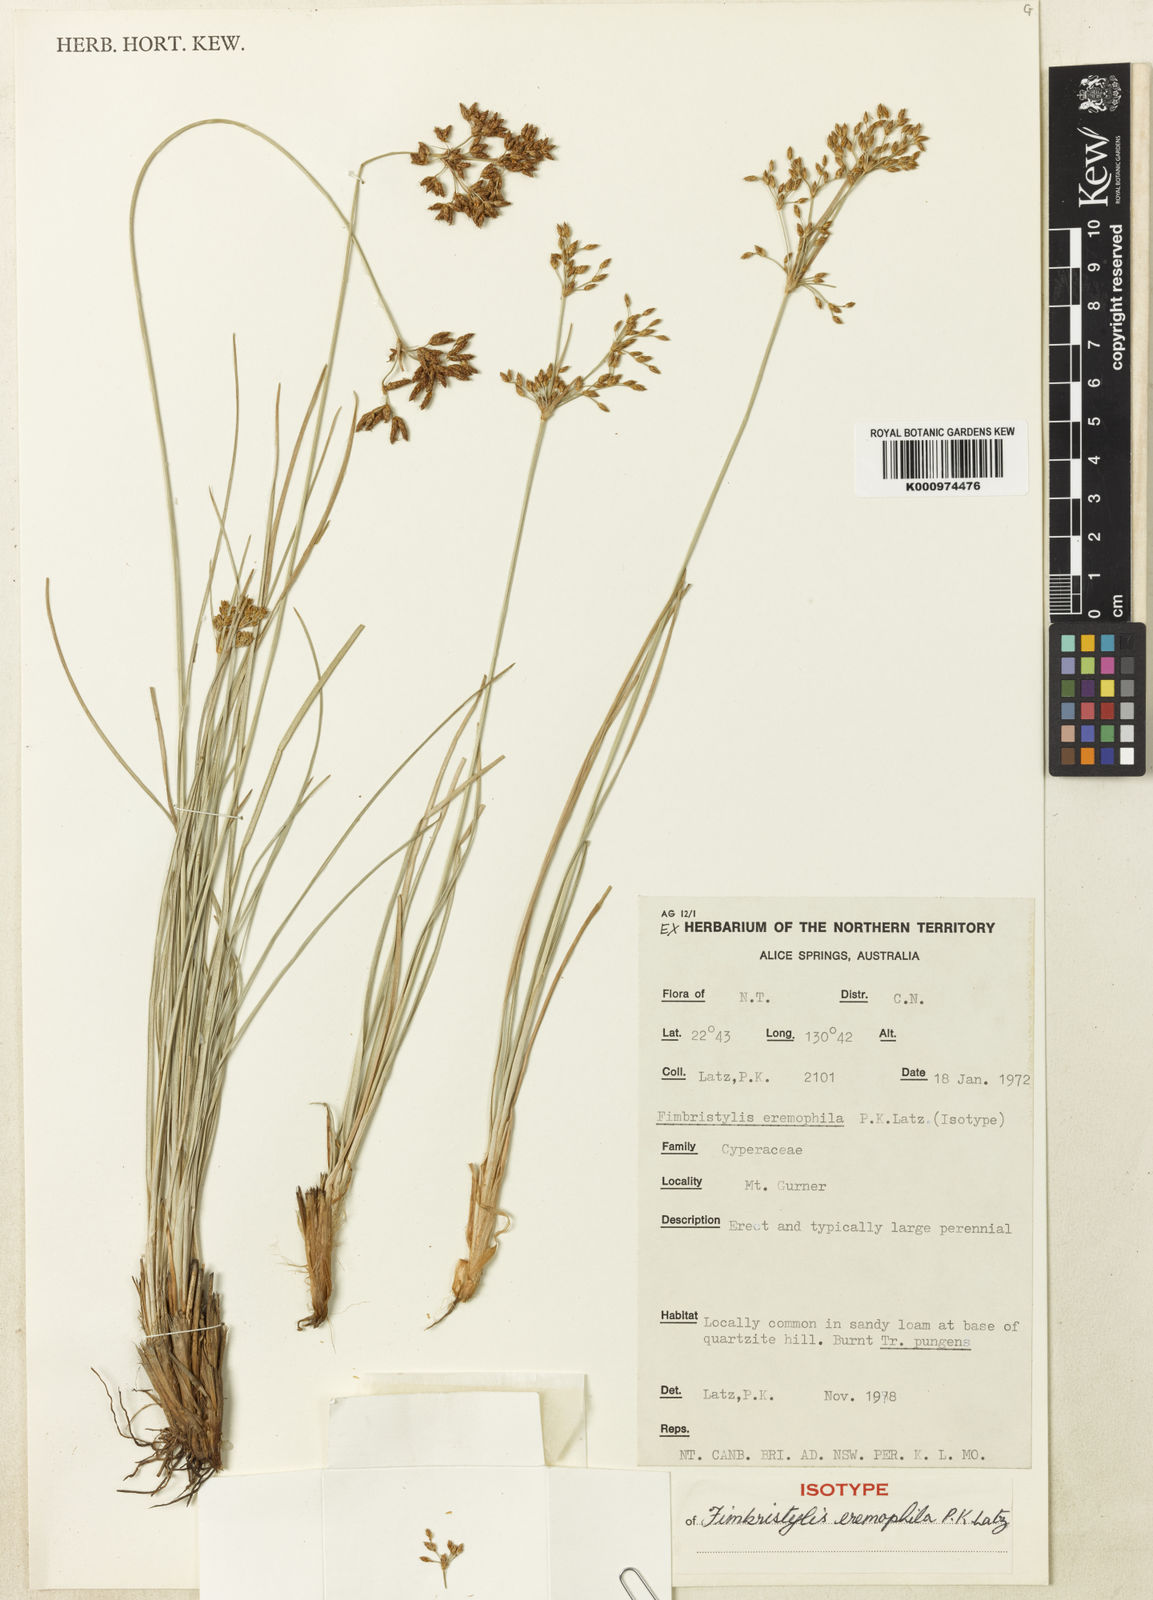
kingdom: Plantae
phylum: Tracheophyta
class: Liliopsida
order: Poales
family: Cyperaceae
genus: Fimbristylis
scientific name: Fimbristylis eremophila
